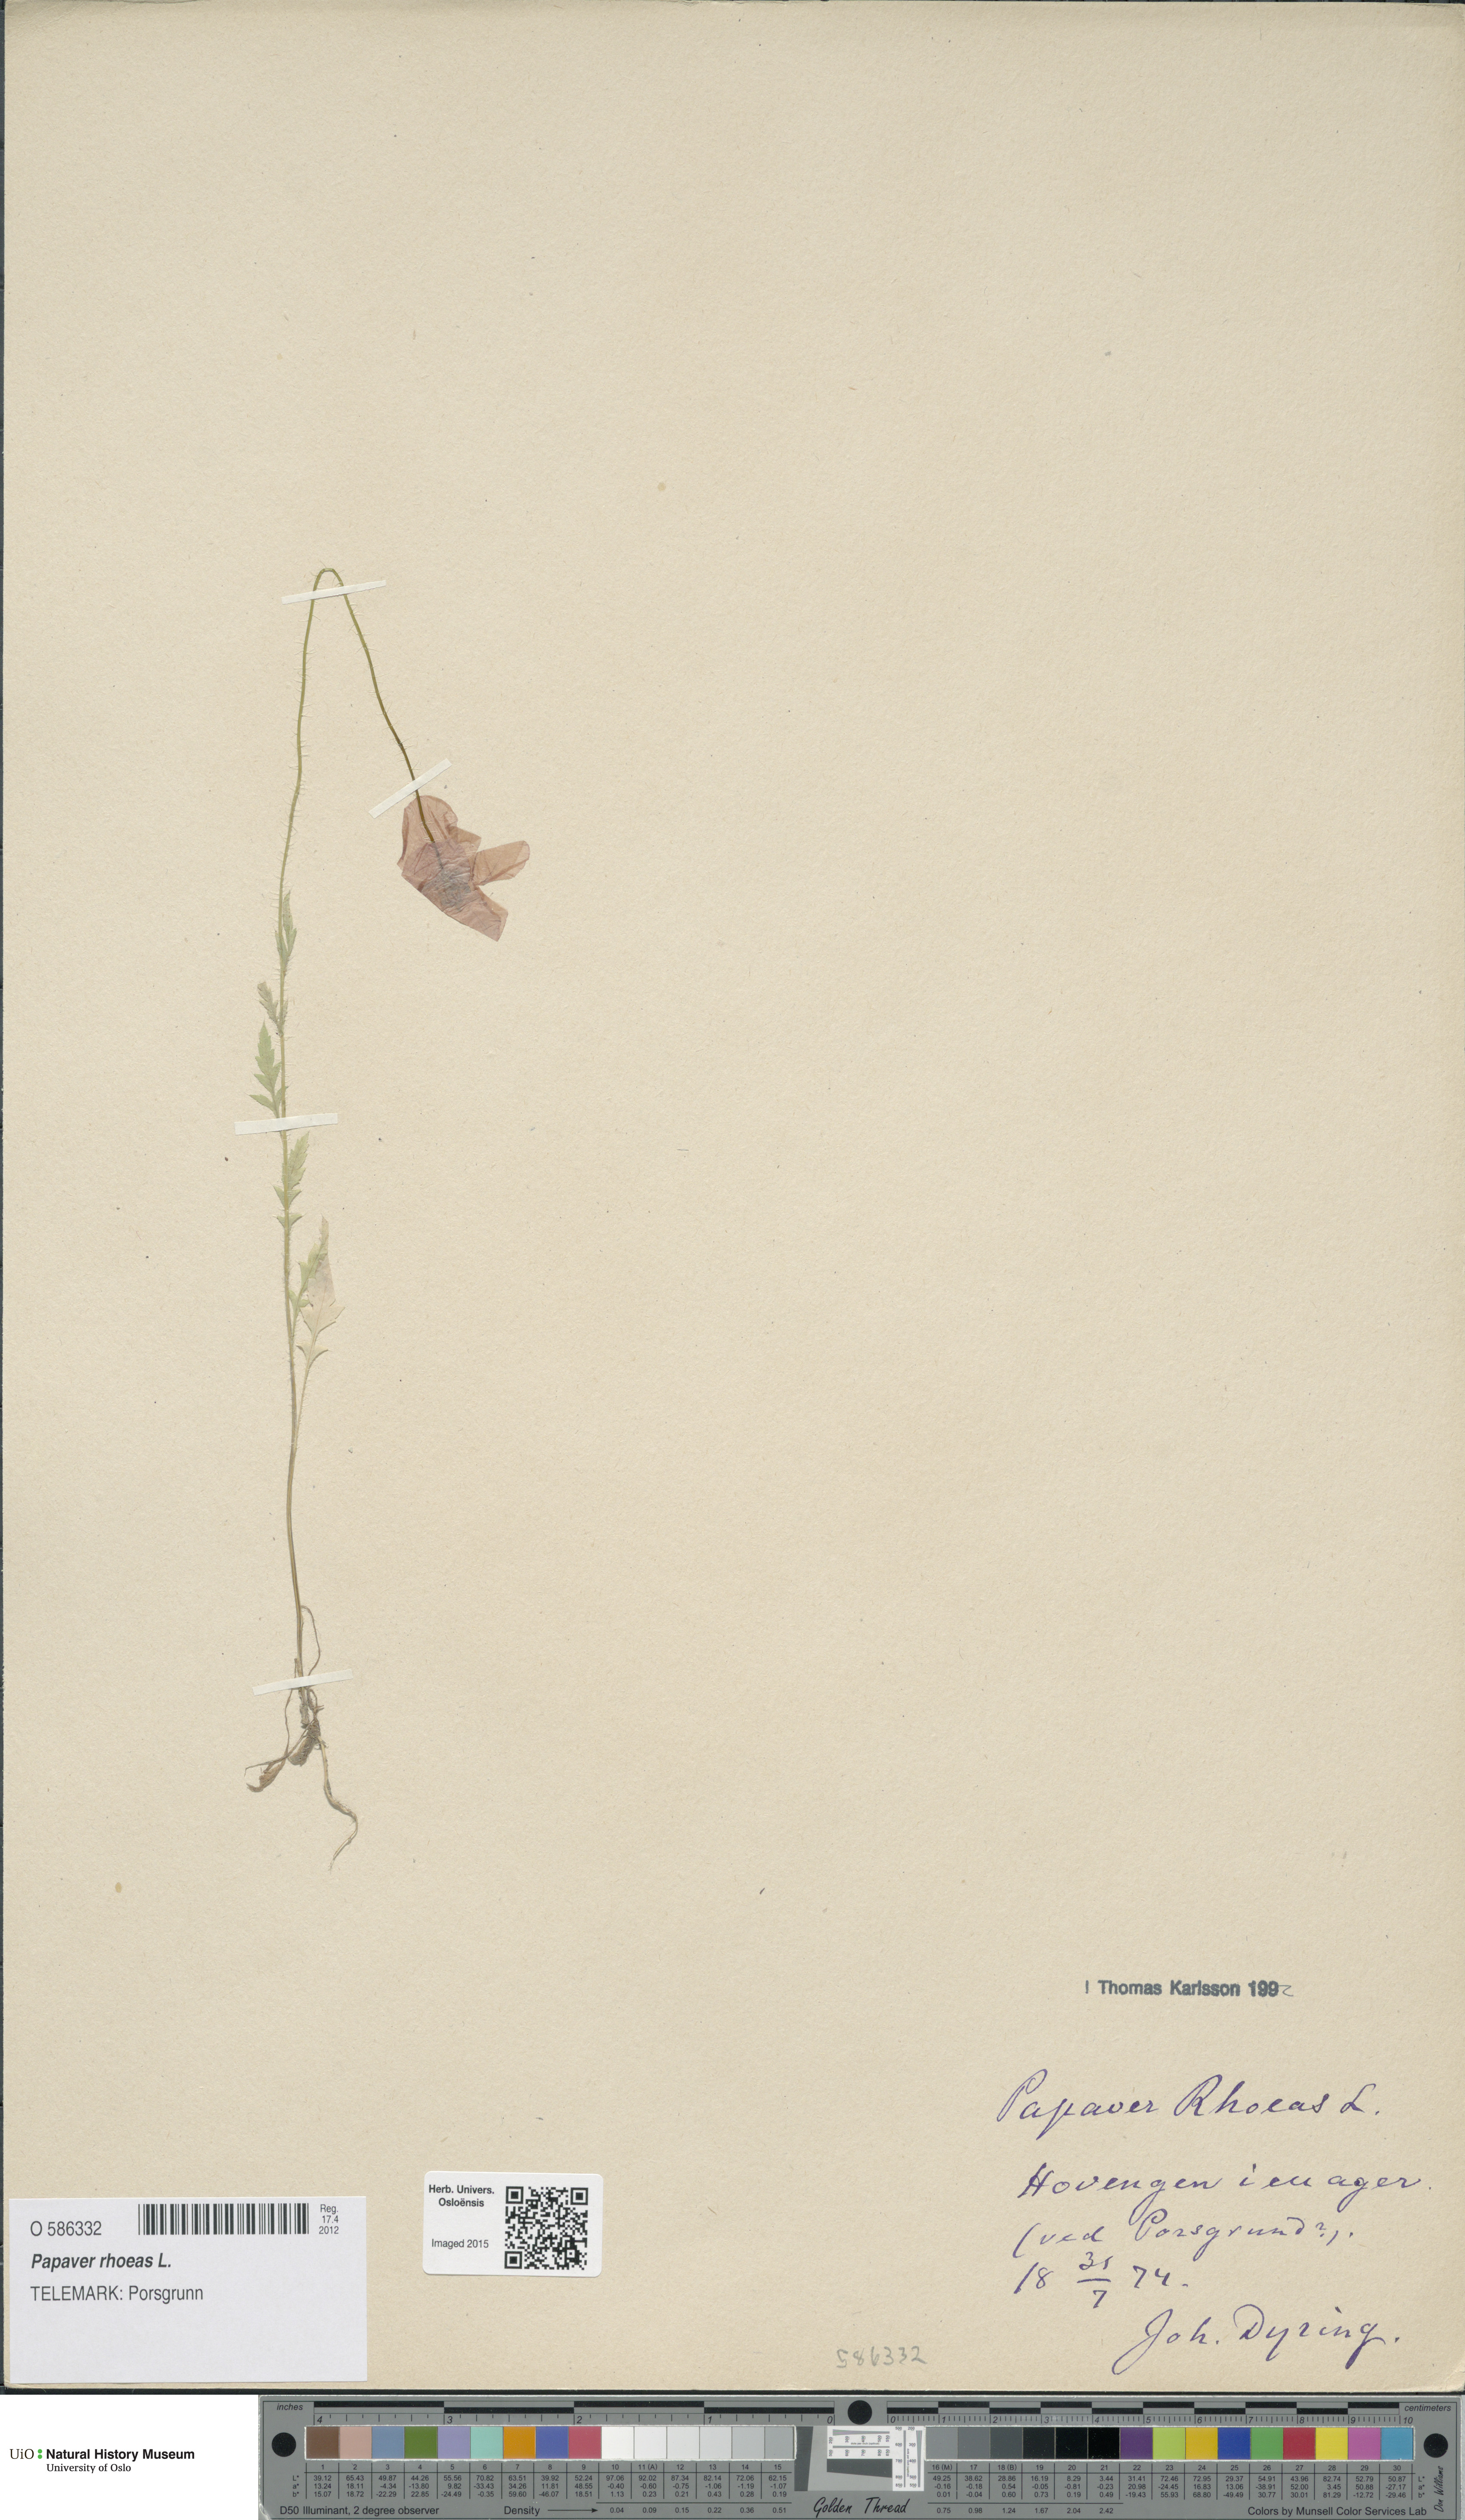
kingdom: Plantae
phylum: Tracheophyta
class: Magnoliopsida
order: Ranunculales
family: Papaveraceae
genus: Papaver
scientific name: Papaver rhoeas
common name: Corn poppy
